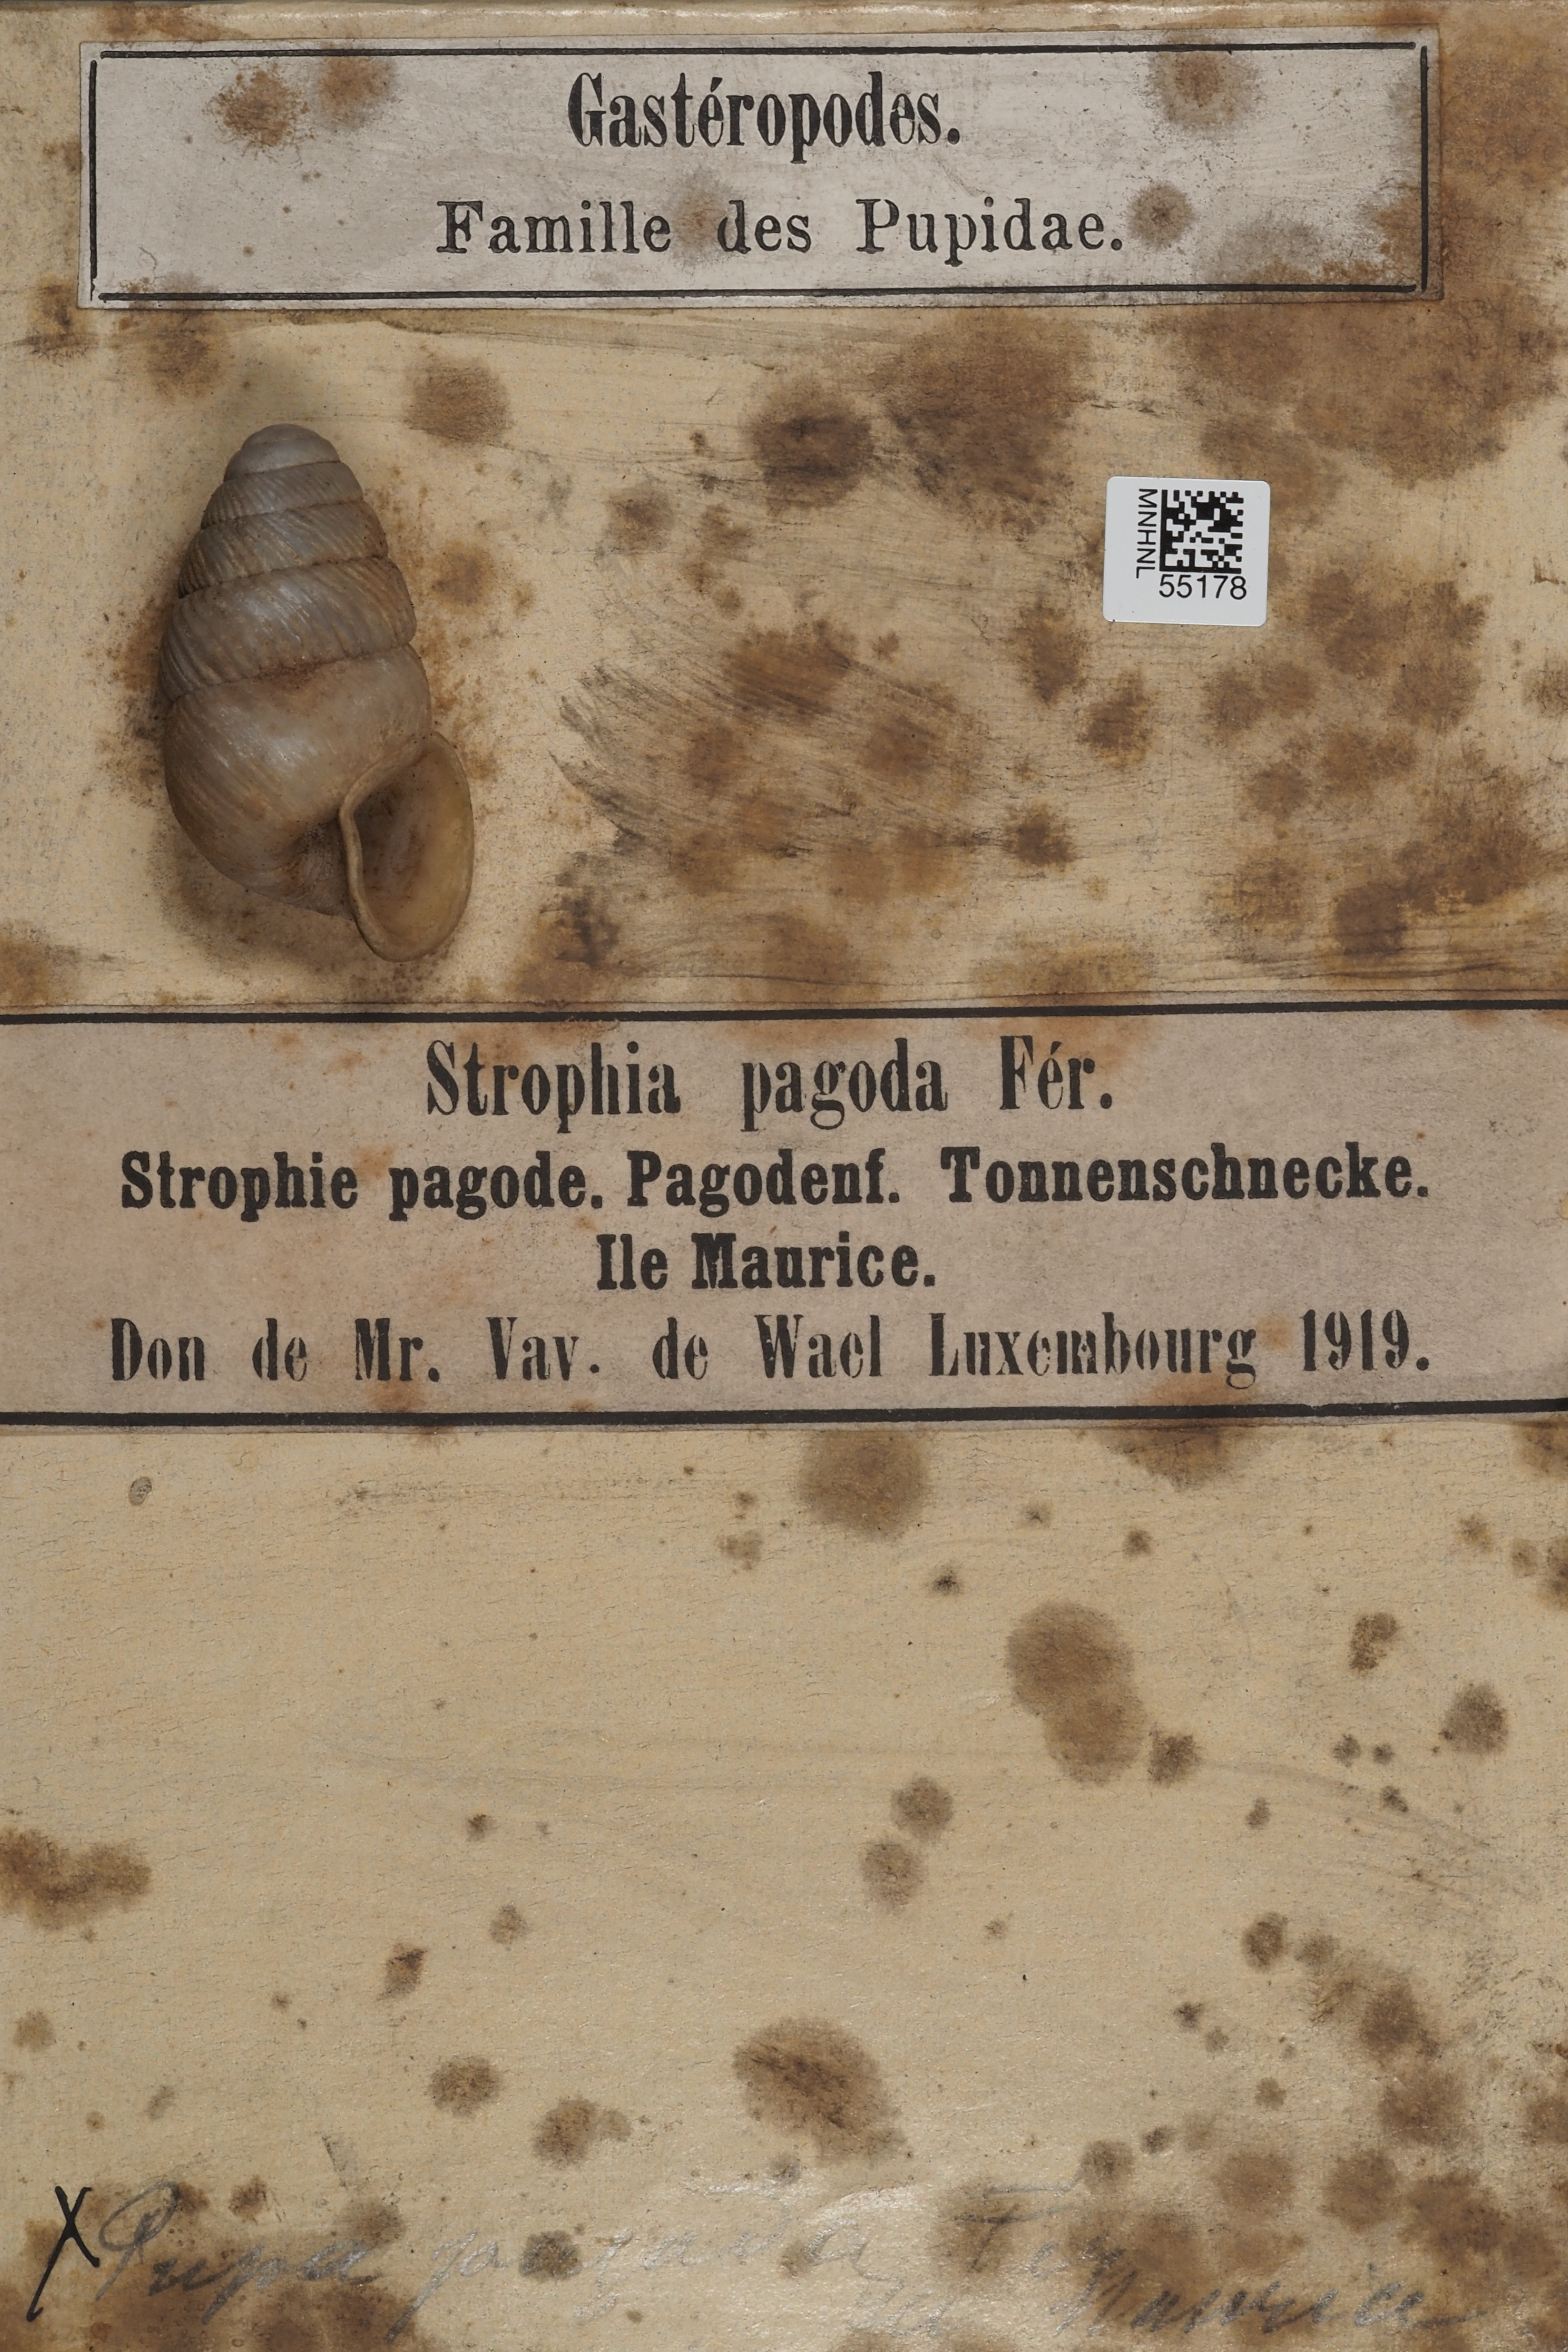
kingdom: Animalia
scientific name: Animalia
